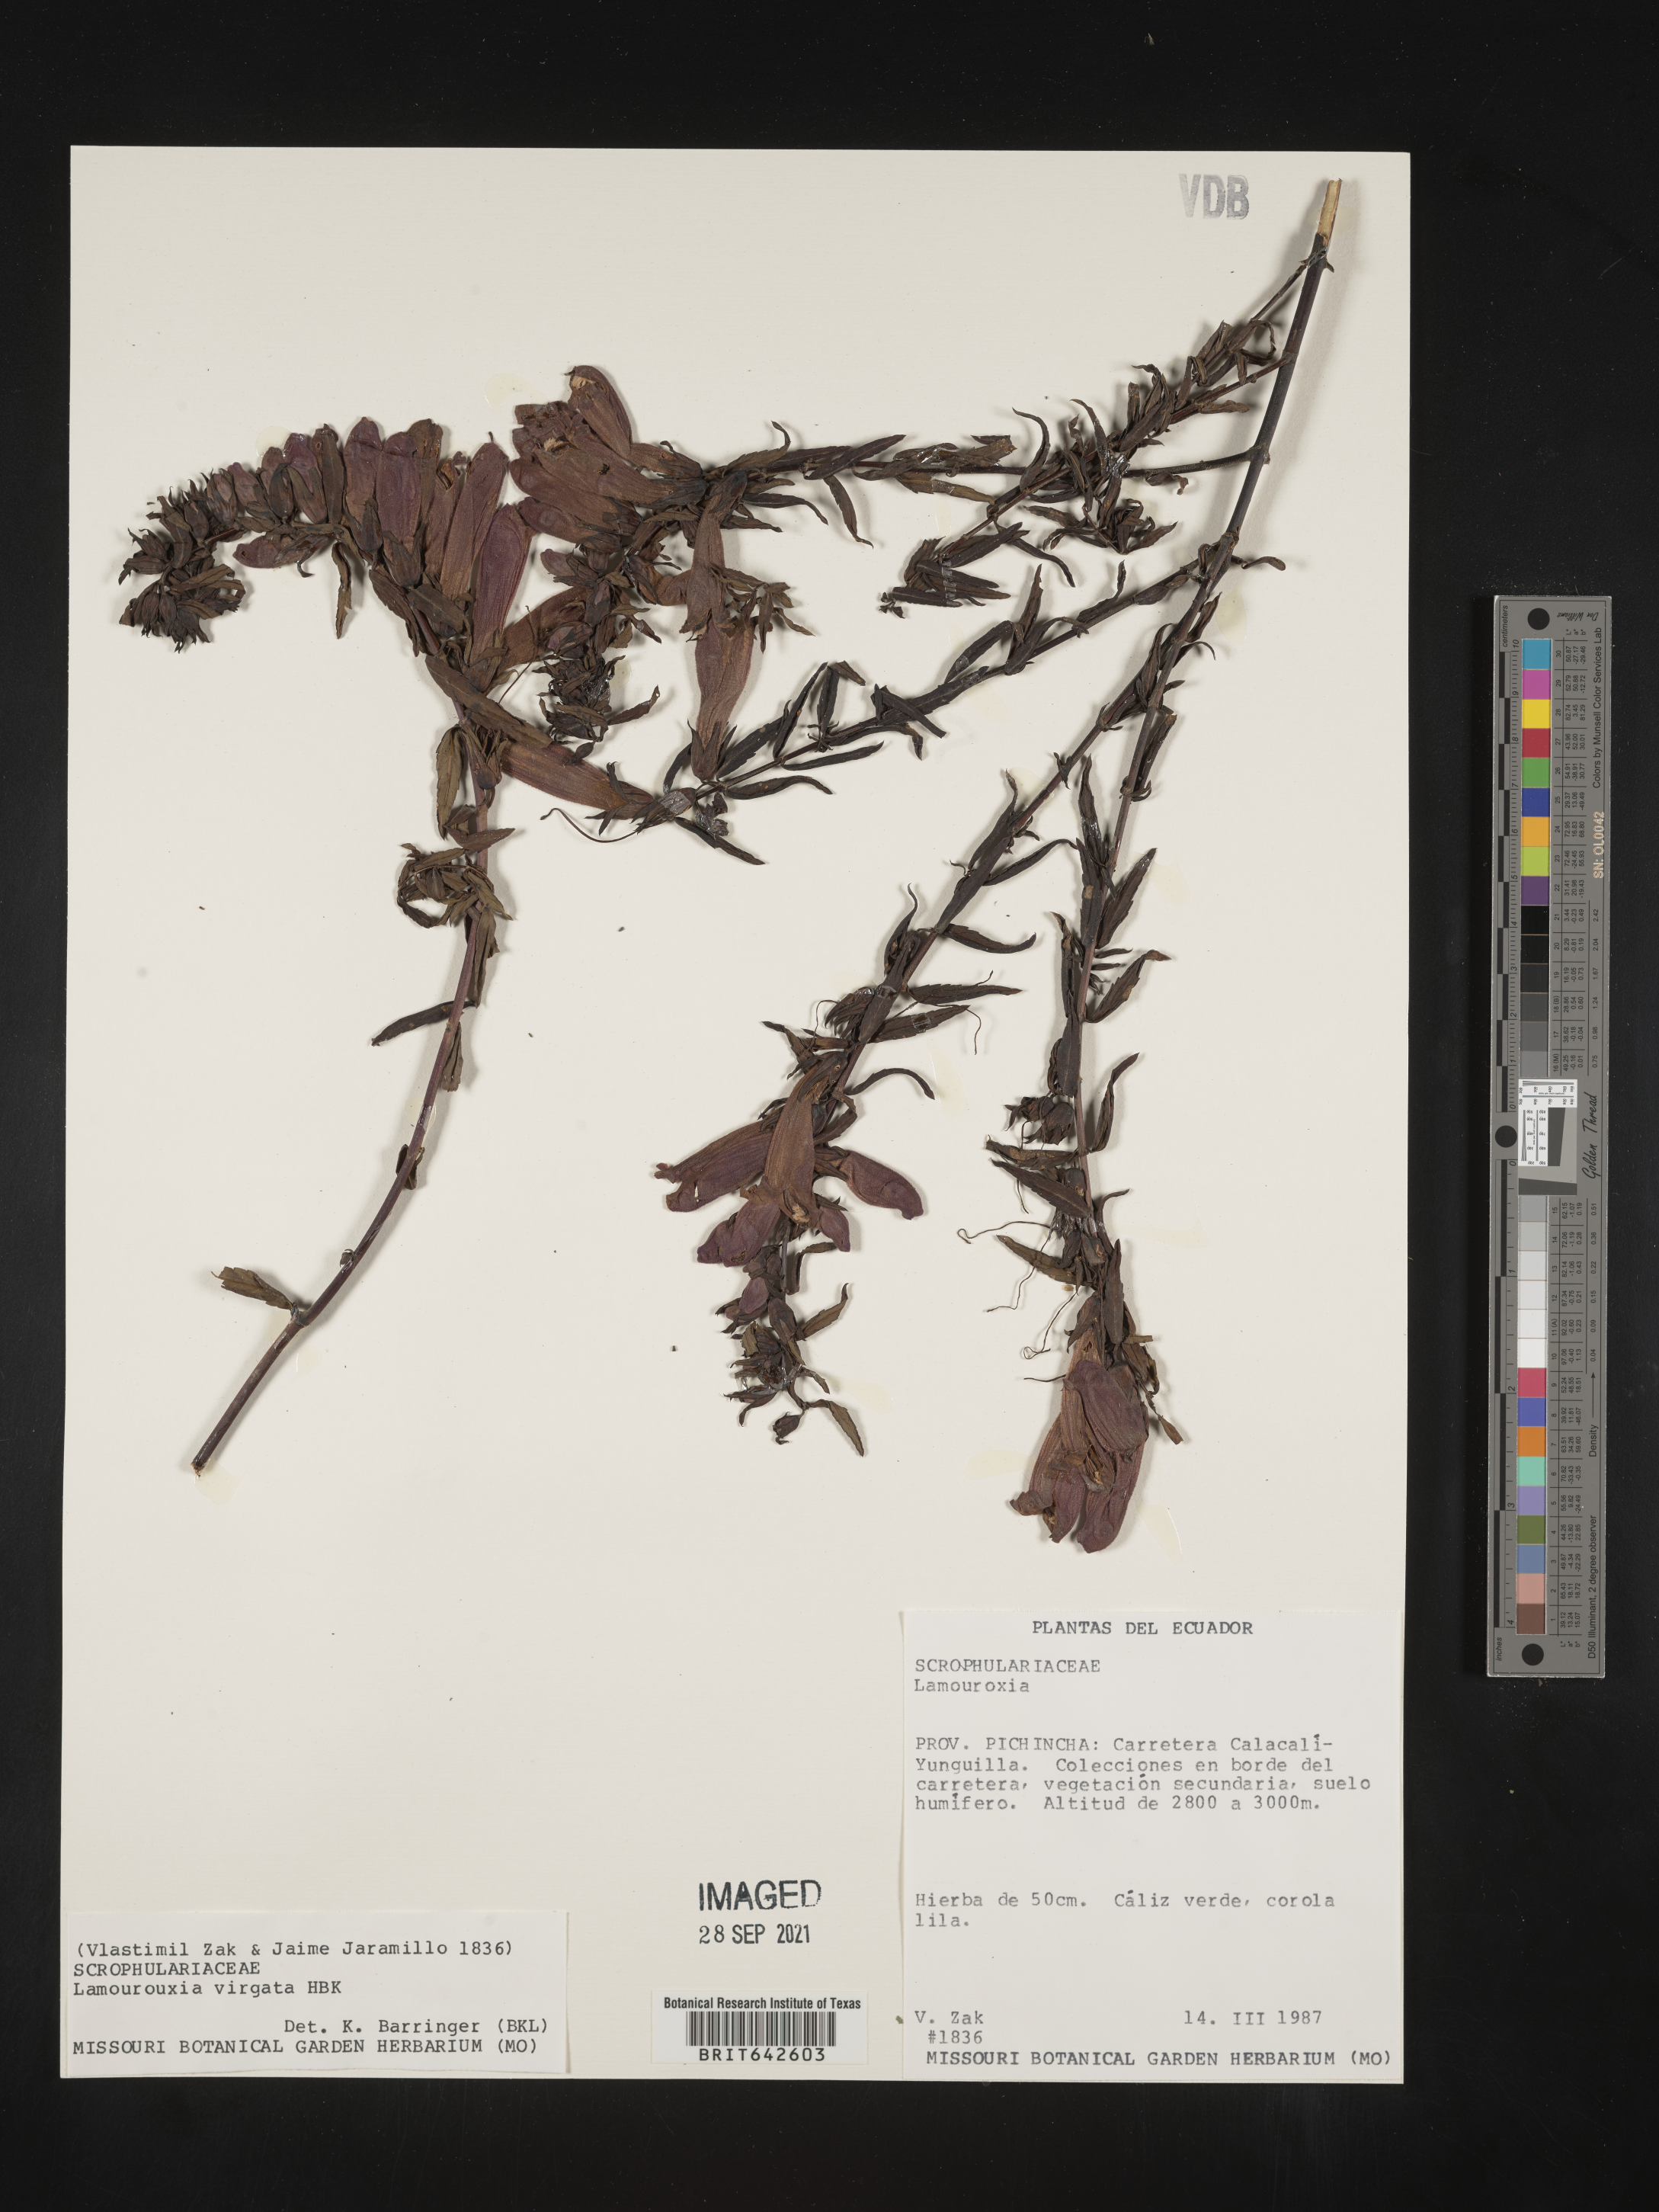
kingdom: Plantae
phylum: Tracheophyta
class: Magnoliopsida
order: Lamiales
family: Orobanchaceae
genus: Lamourouxia
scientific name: Lamourouxia
